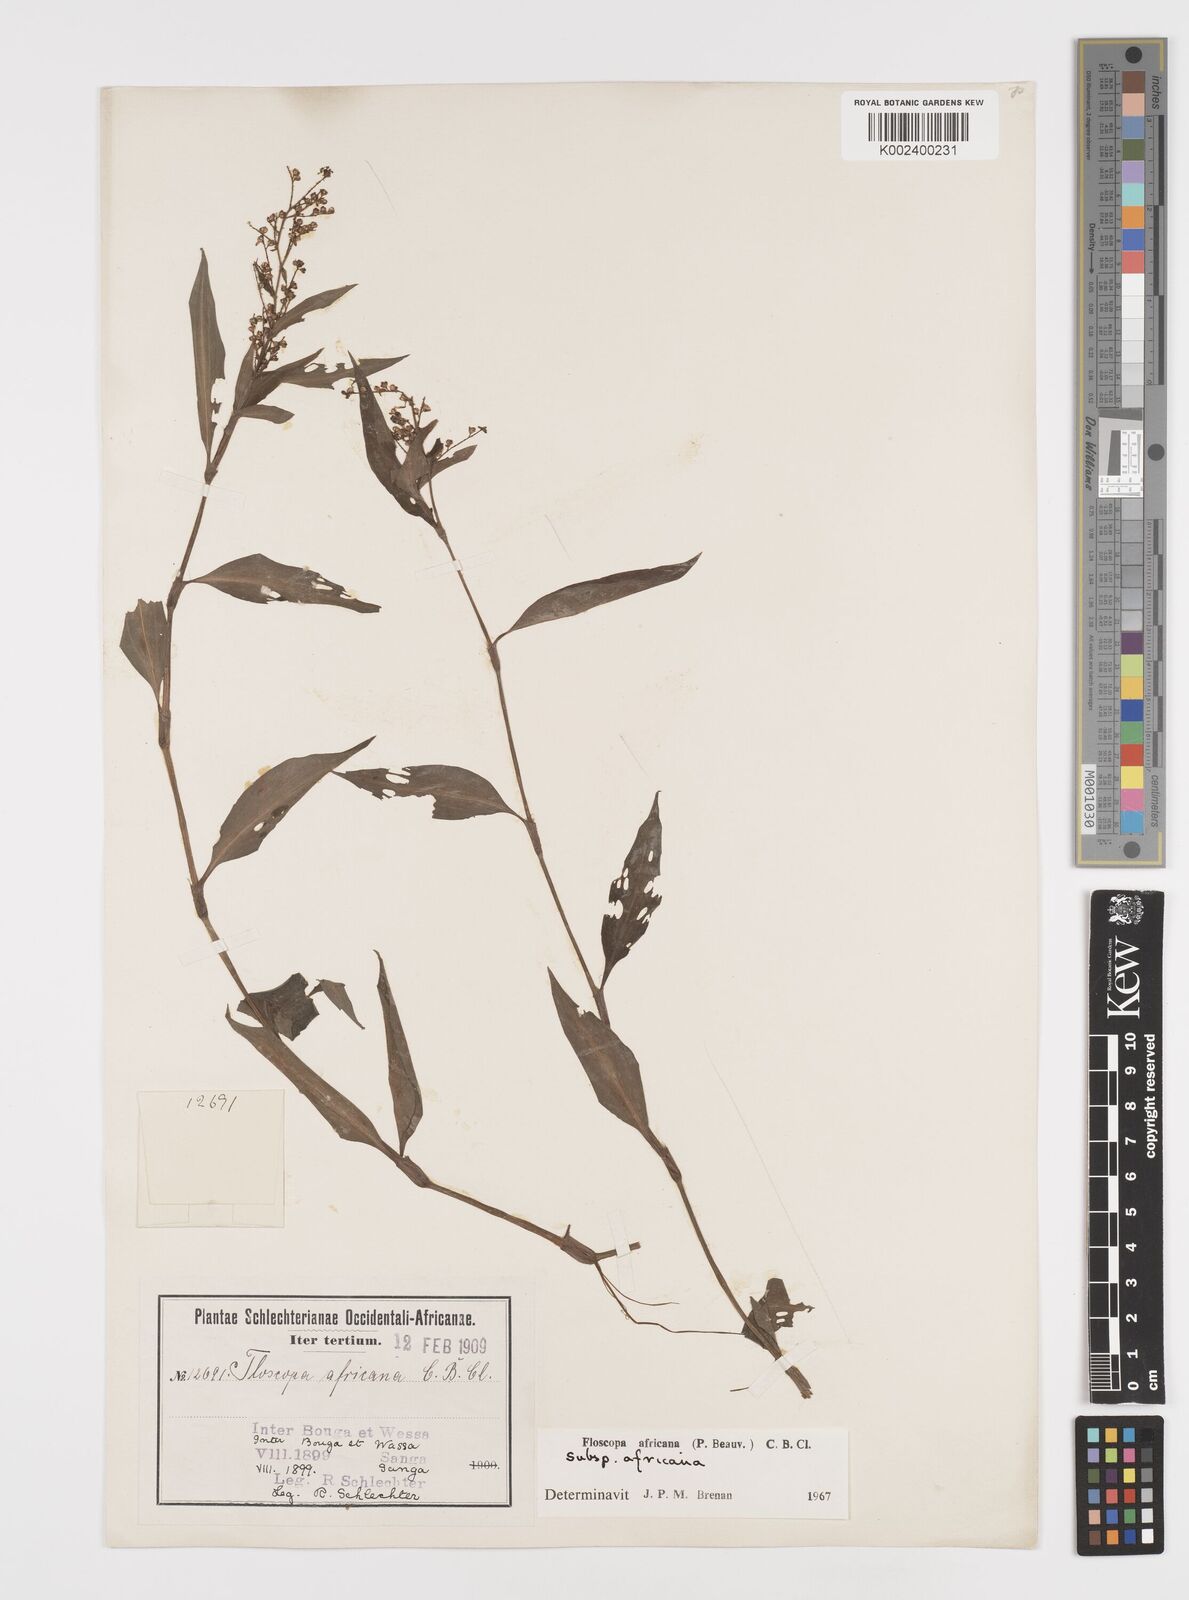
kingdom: Plantae
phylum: Tracheophyta
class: Liliopsida
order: Commelinales
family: Commelinaceae
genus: Floscopa
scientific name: Floscopa africana
